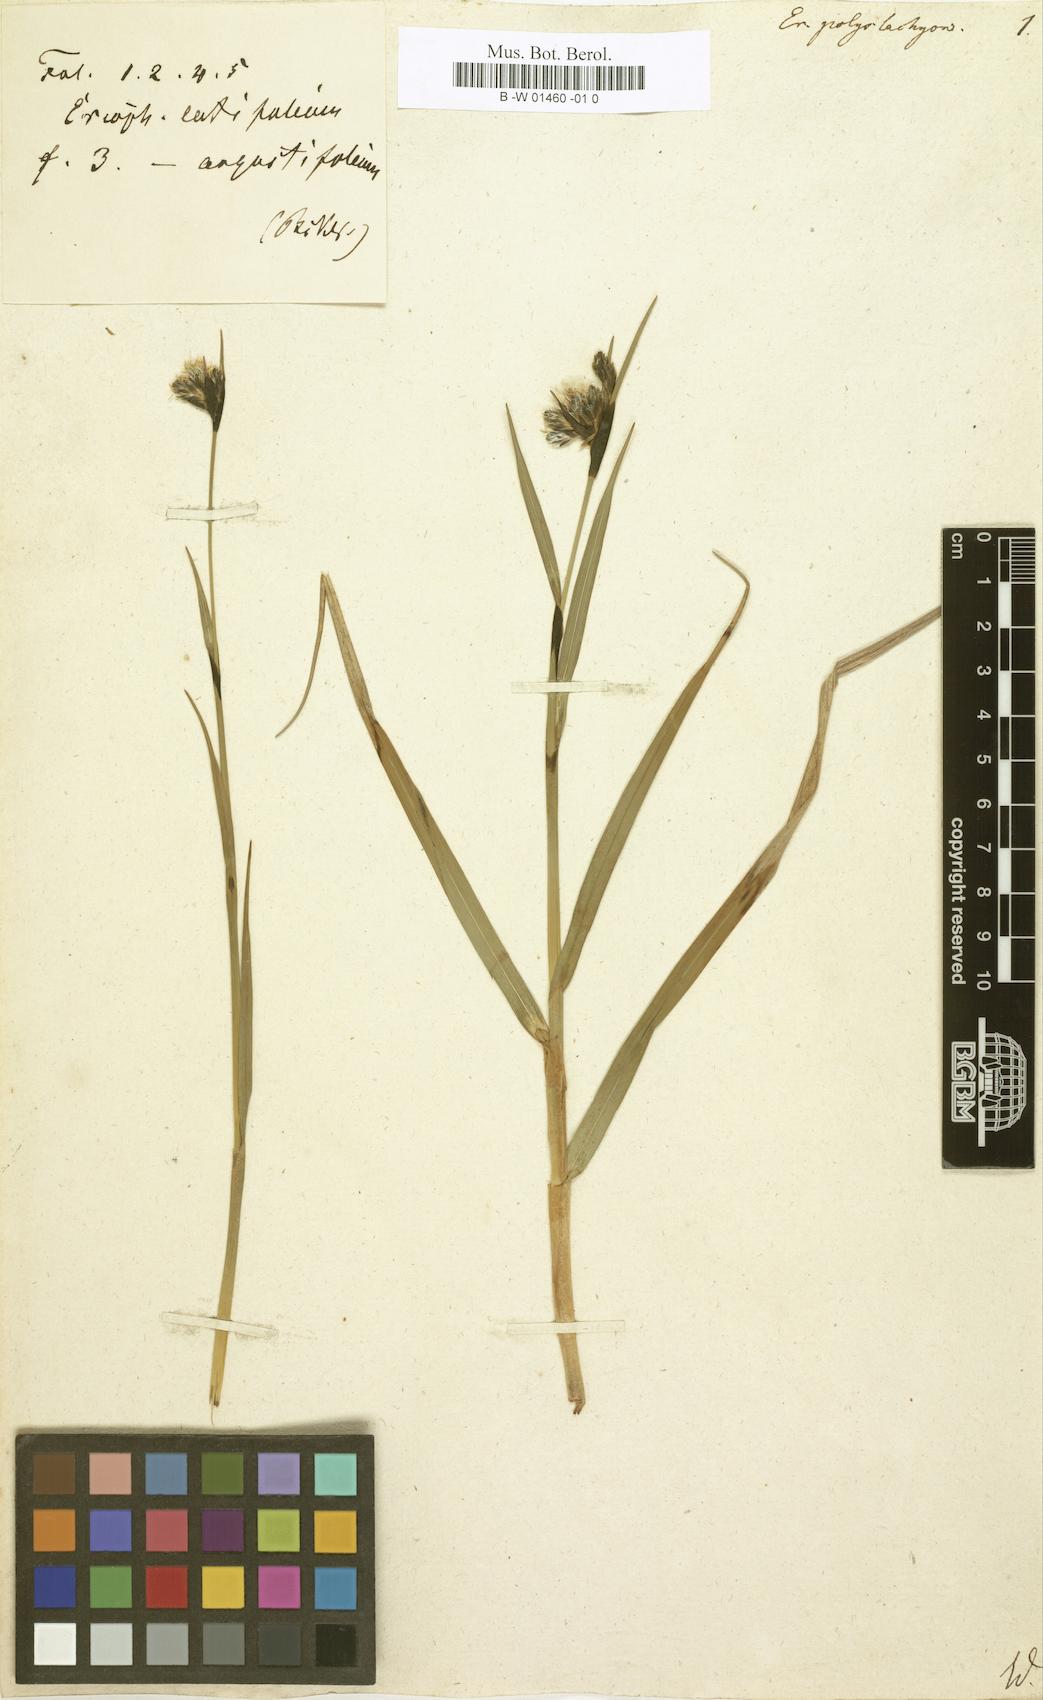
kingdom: Plantae
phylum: Tracheophyta
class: Liliopsida
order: Poales
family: Cyperaceae
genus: Eriophorum
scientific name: Eriophorum angustifolium
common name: Common cottongrass
